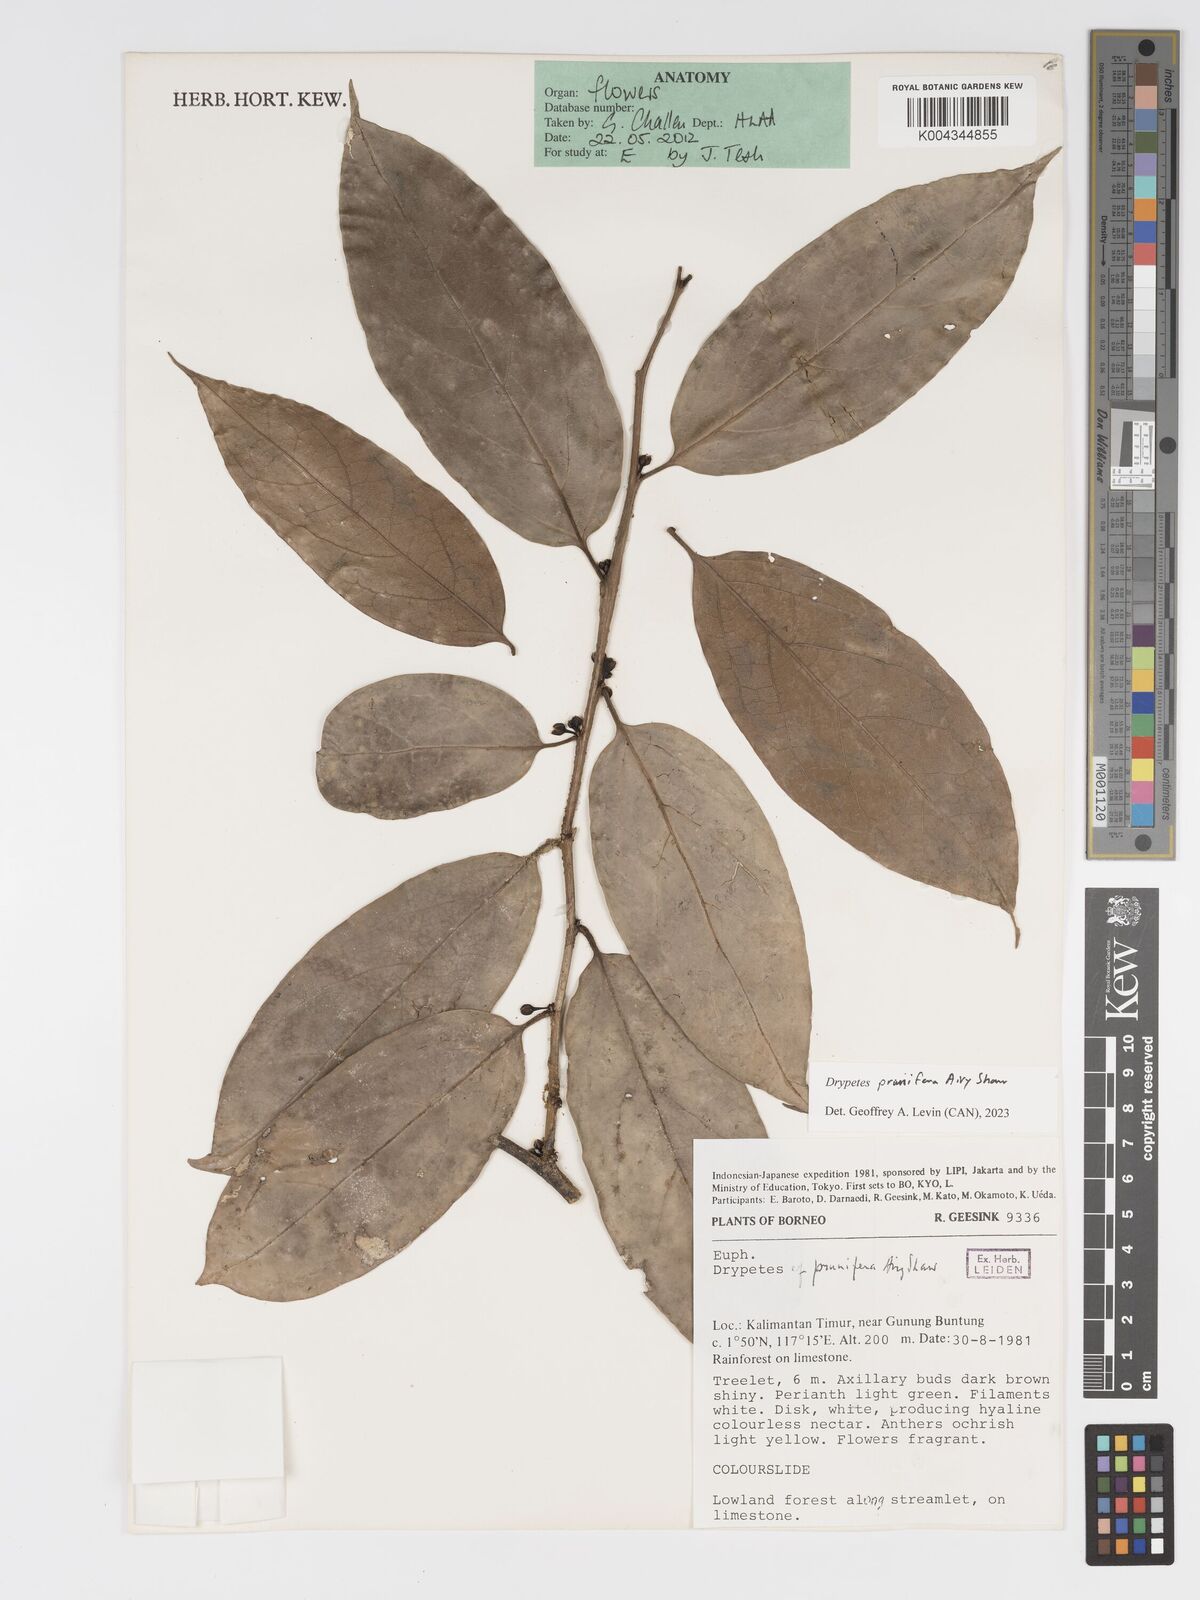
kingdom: Plantae
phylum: Tracheophyta
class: Magnoliopsida
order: Malpighiales
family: Putranjivaceae
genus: Drypetes
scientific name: Drypetes prunifera
